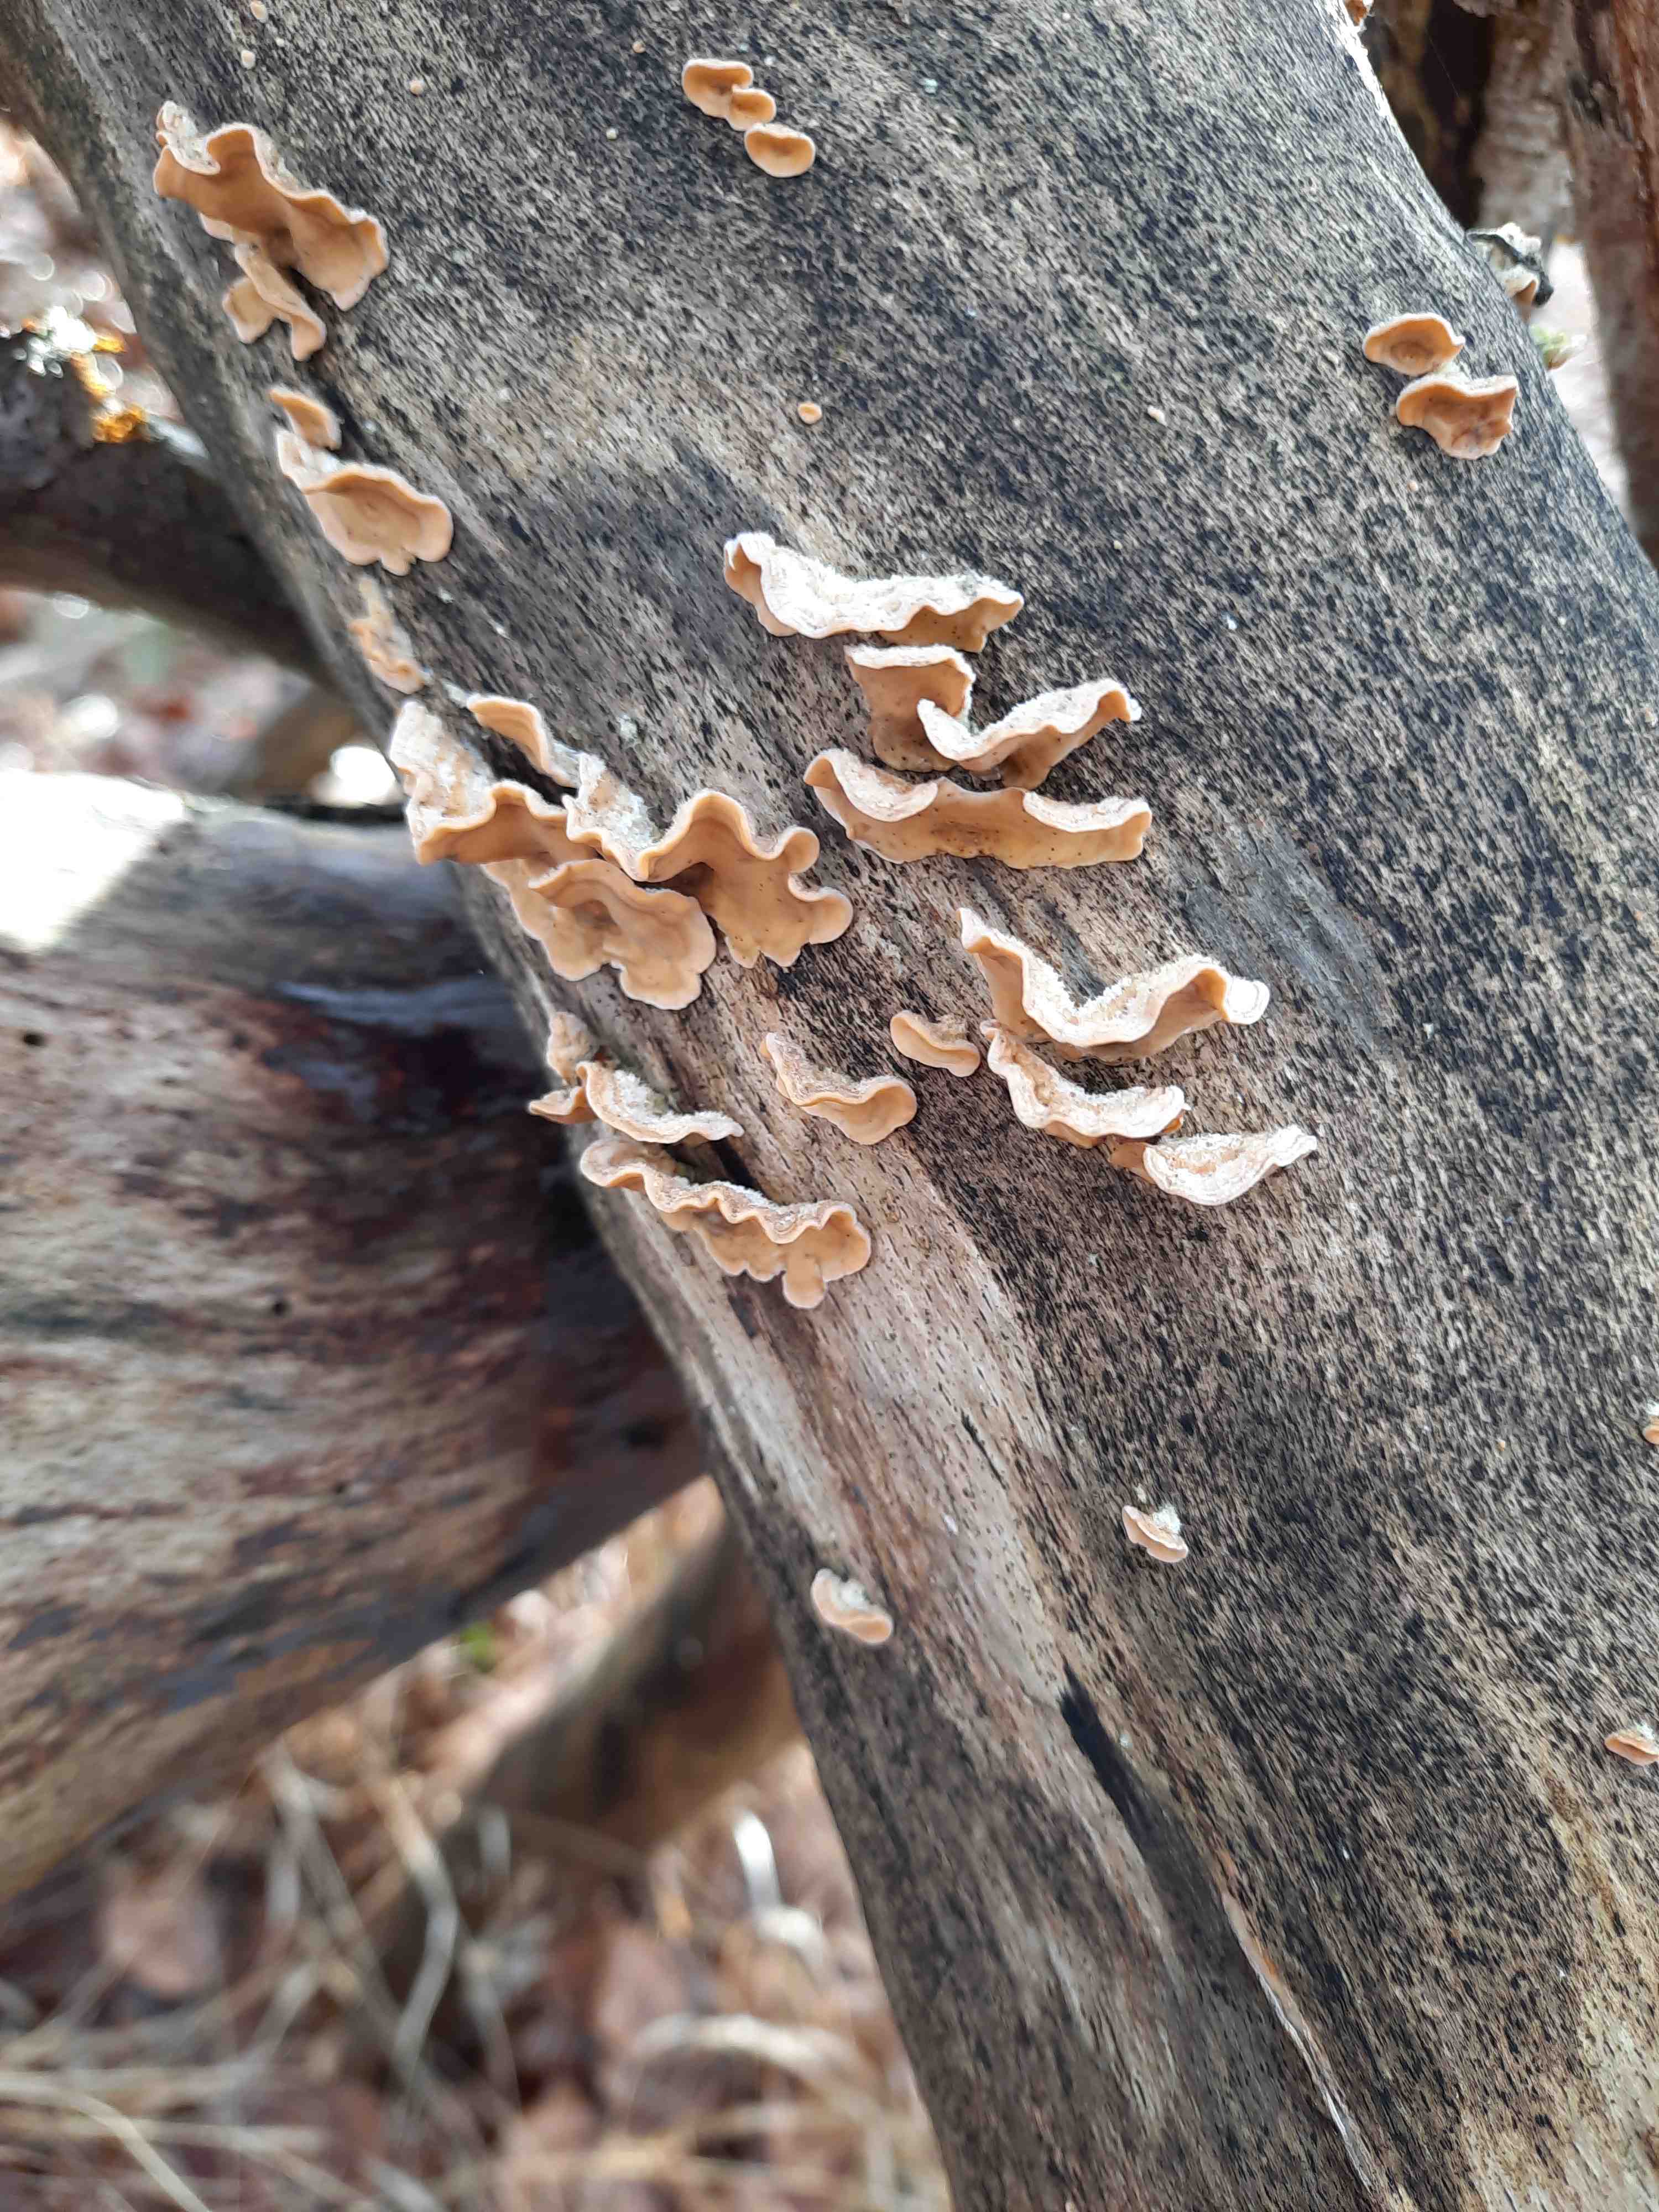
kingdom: Fungi
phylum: Basidiomycota
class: Agaricomycetes
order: Russulales
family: Stereaceae
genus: Stereum
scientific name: Stereum hirsutum
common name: håret lædersvamp
